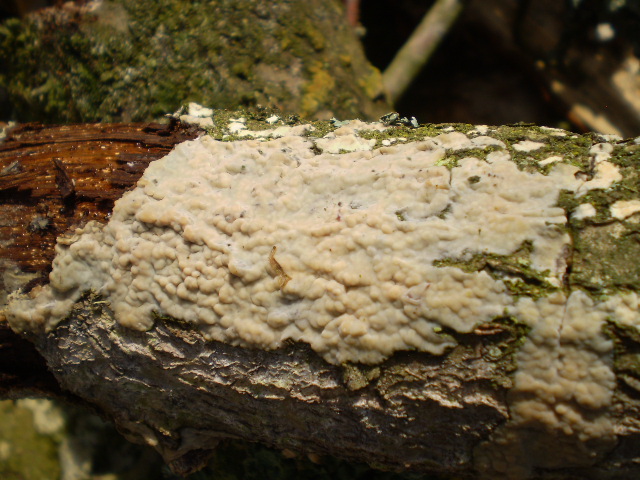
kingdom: Fungi
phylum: Basidiomycota
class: Agaricomycetes
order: Agaricales
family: Radulomycetaceae
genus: Radulomyces
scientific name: Radulomyces confluens
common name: glat naftalinskind
